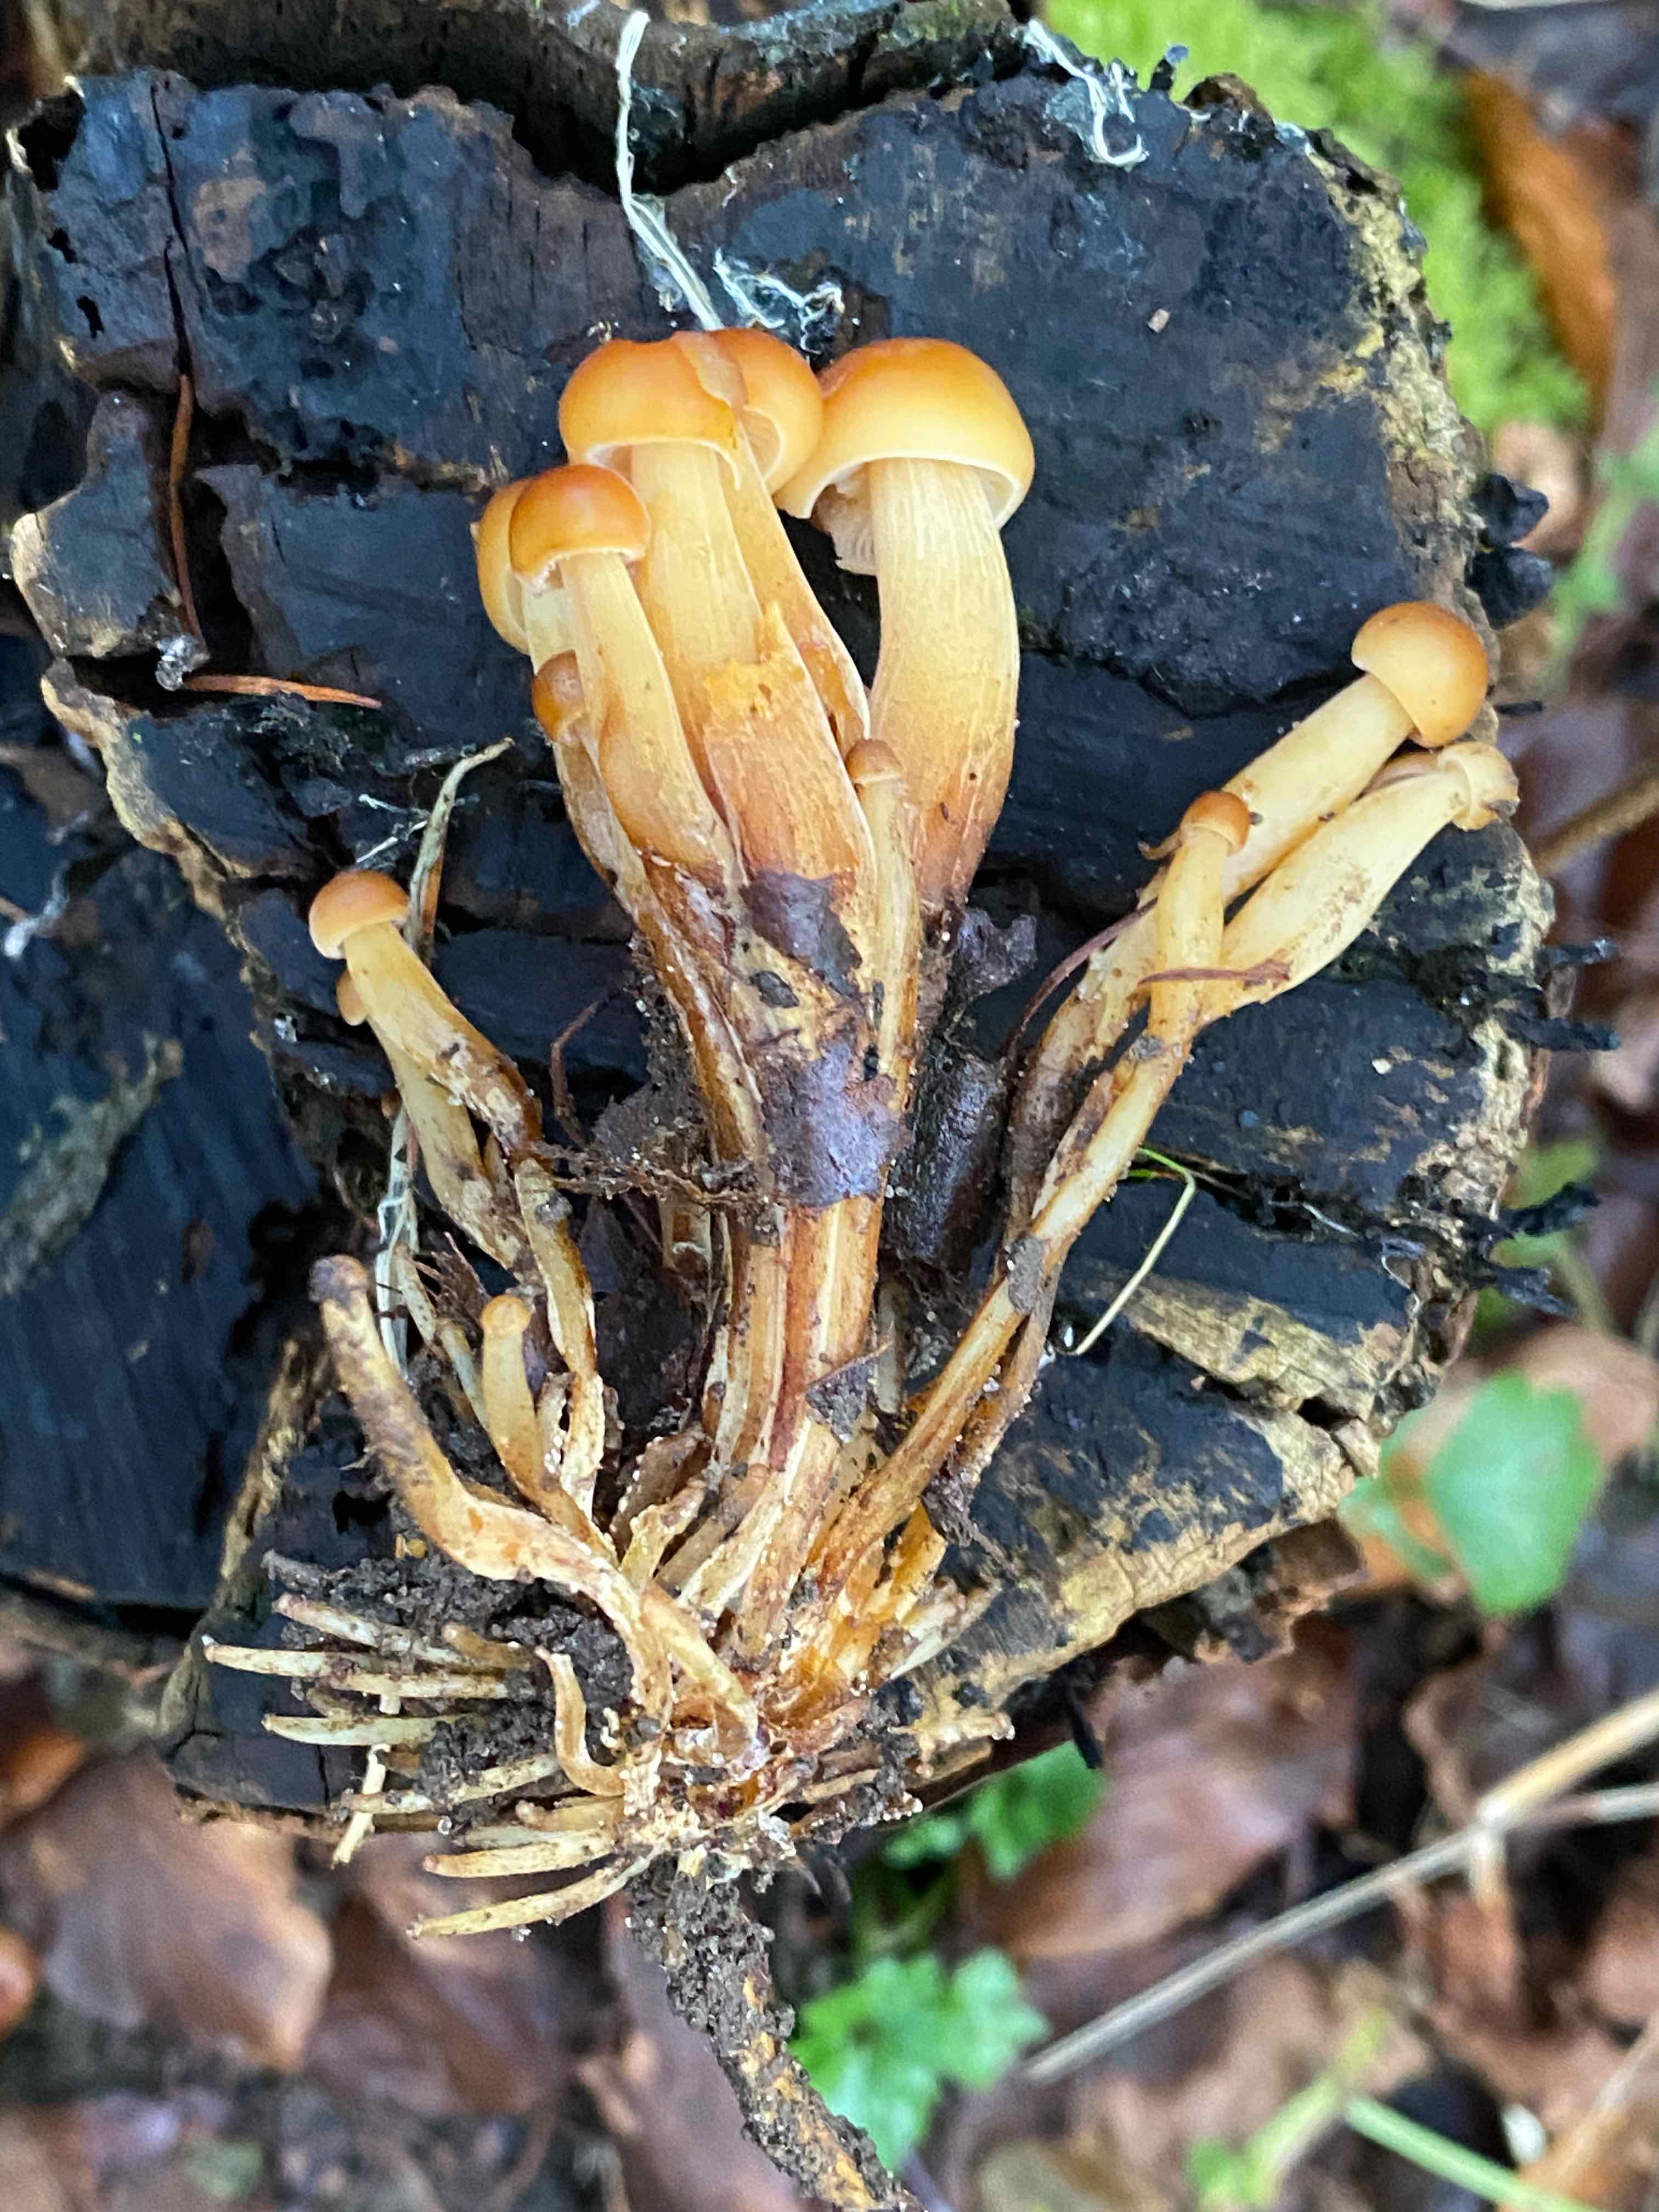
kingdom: Fungi
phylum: Basidiomycota
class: Agaricomycetes
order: Agaricales
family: Physalacriaceae
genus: Flammulina
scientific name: Flammulina velutipes
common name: gul fløjlsfod
